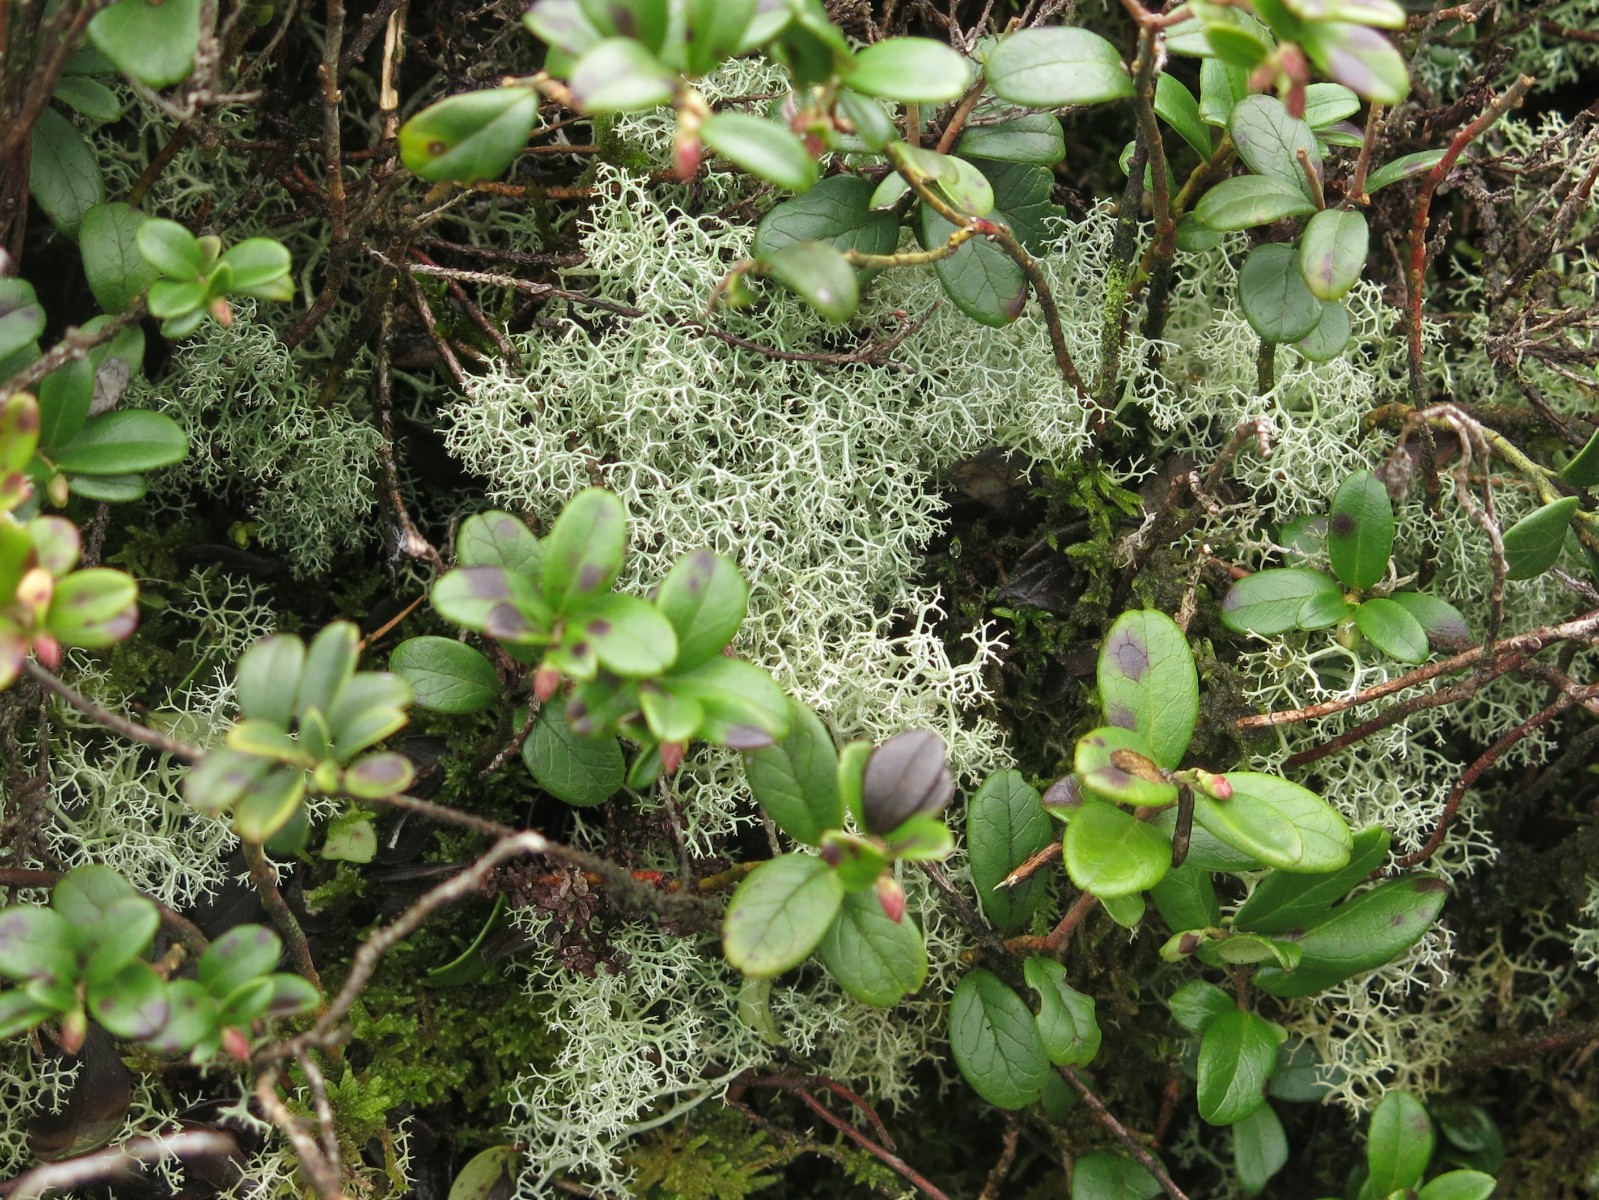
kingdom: Fungi
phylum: Ascomycota
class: Lecanoromycetes
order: Lecanorales
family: Cladoniaceae
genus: Cladonia
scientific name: Cladonia portentosa
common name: hede-rensdyrlav
